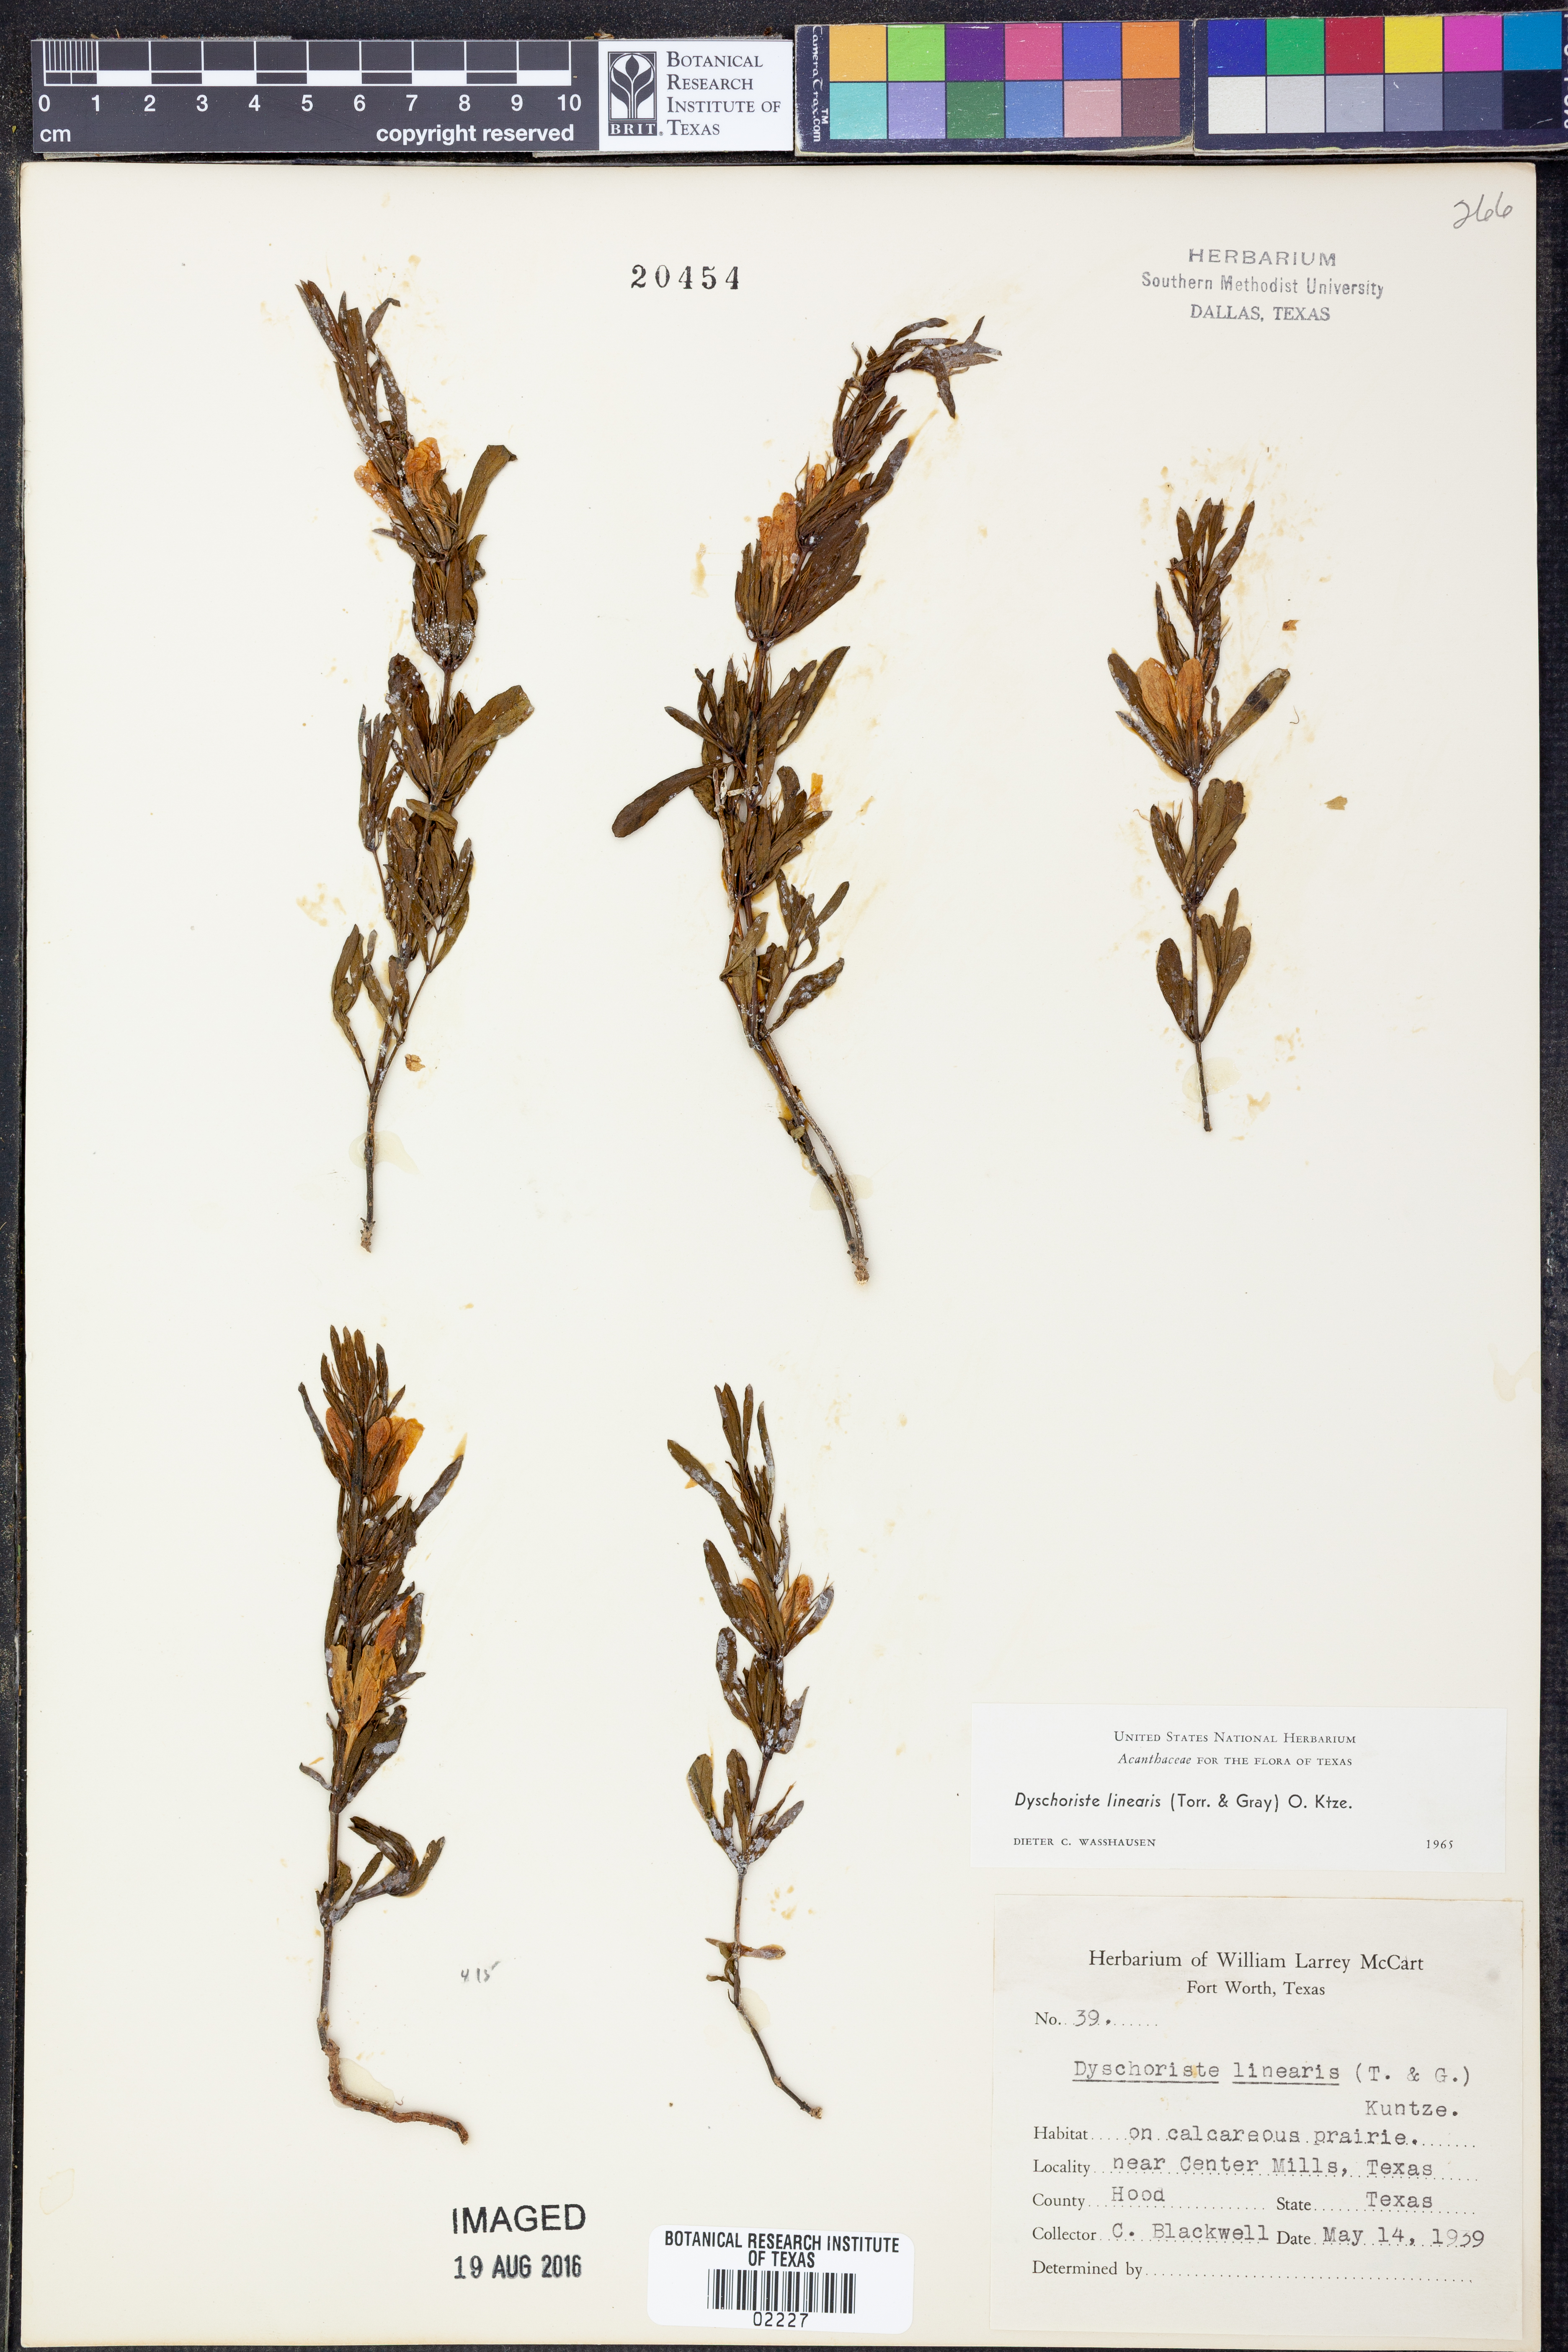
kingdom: Plantae
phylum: Tracheophyta
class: Magnoliopsida
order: Lamiales
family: Acanthaceae
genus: Dyschoriste
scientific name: Dyschoriste linearis
